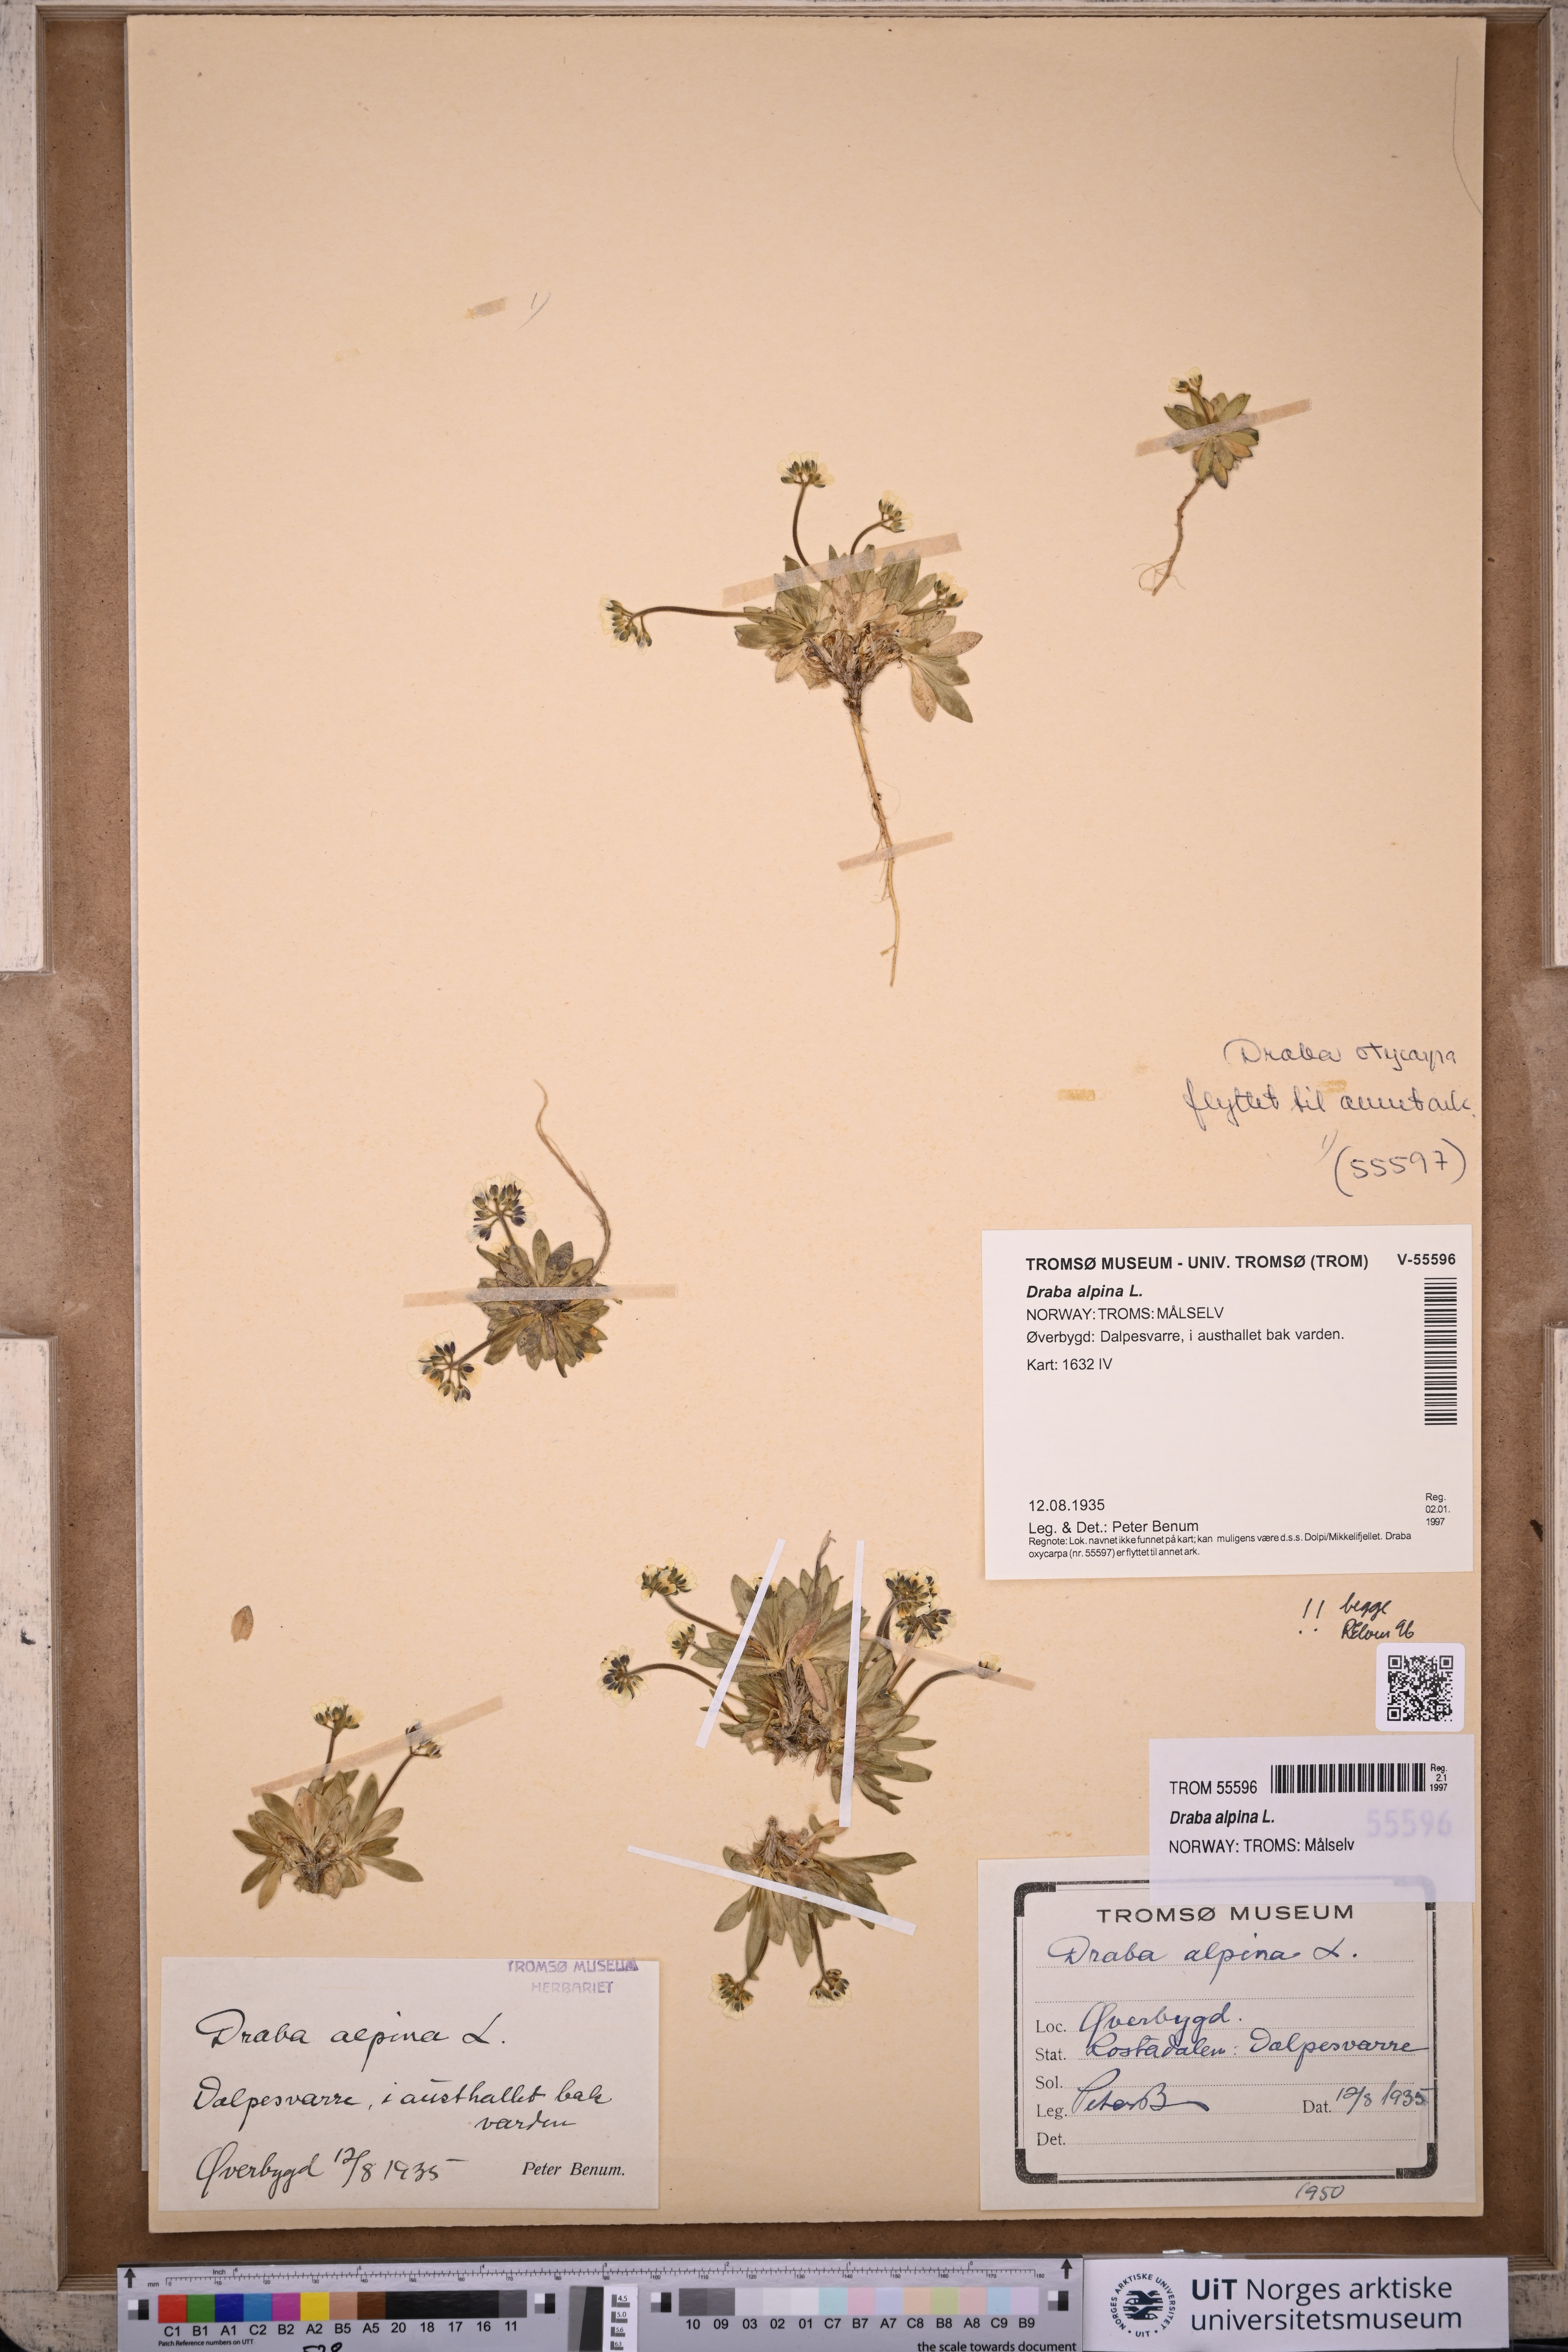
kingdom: Plantae
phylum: Tracheophyta
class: Magnoliopsida
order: Brassicales
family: Brassicaceae
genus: Draba
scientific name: Draba alpina
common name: Alpine draba
